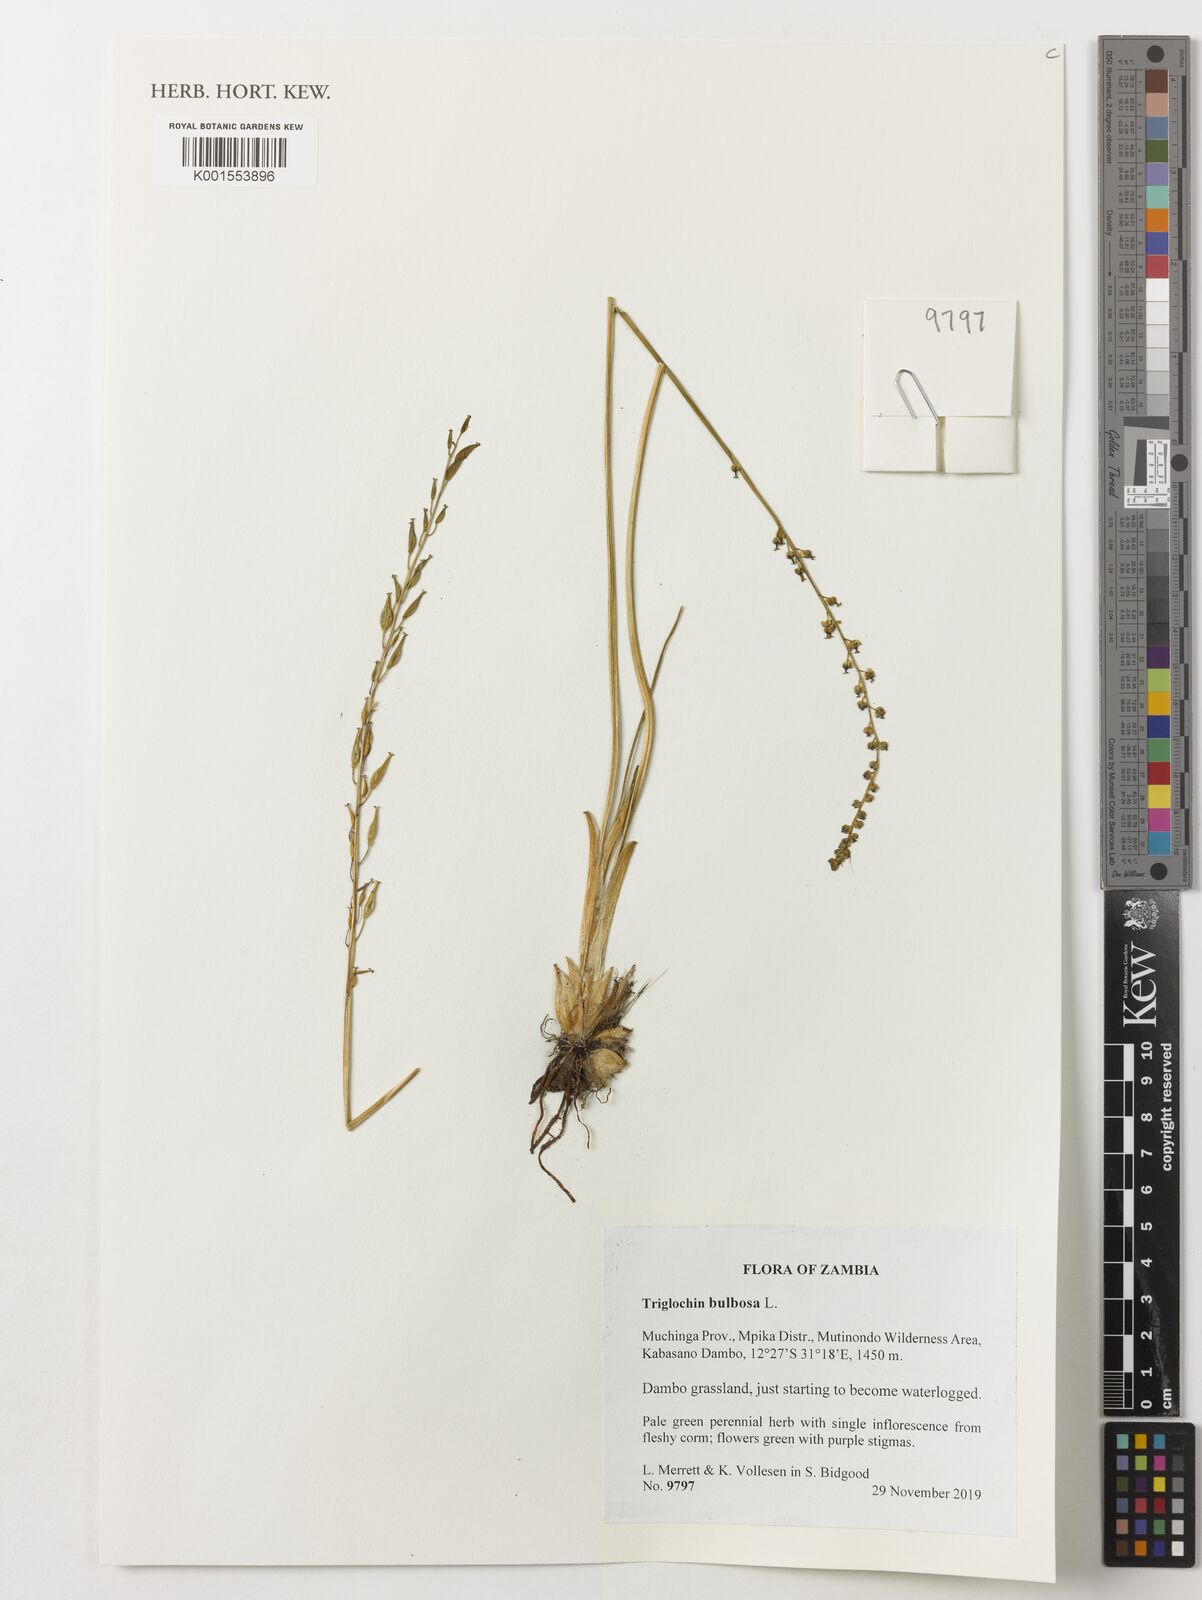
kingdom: Plantae
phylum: Tracheophyta
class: Liliopsida
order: Alismatales
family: Juncaginaceae
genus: Triglochin
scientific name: Triglochin bulbosa
